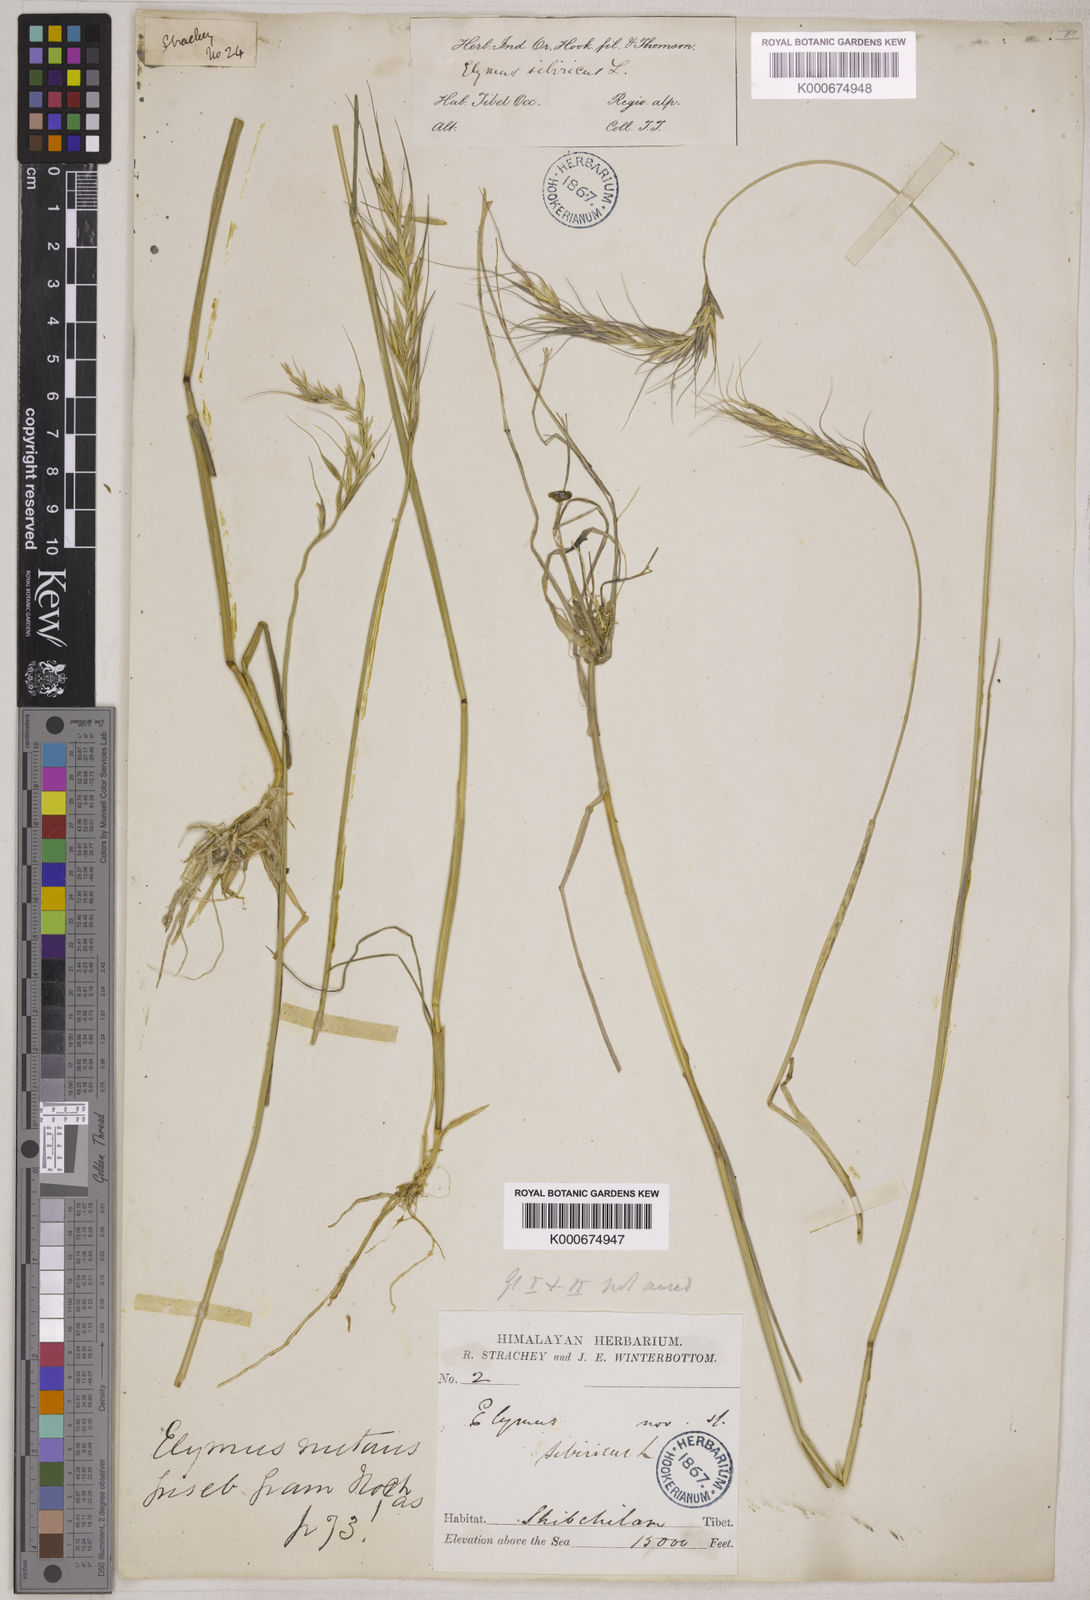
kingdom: Plantae
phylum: Tracheophyta
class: Liliopsida
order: Poales
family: Poaceae
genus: Elymus
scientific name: Elymus sibiricus
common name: Siberian wildrye
